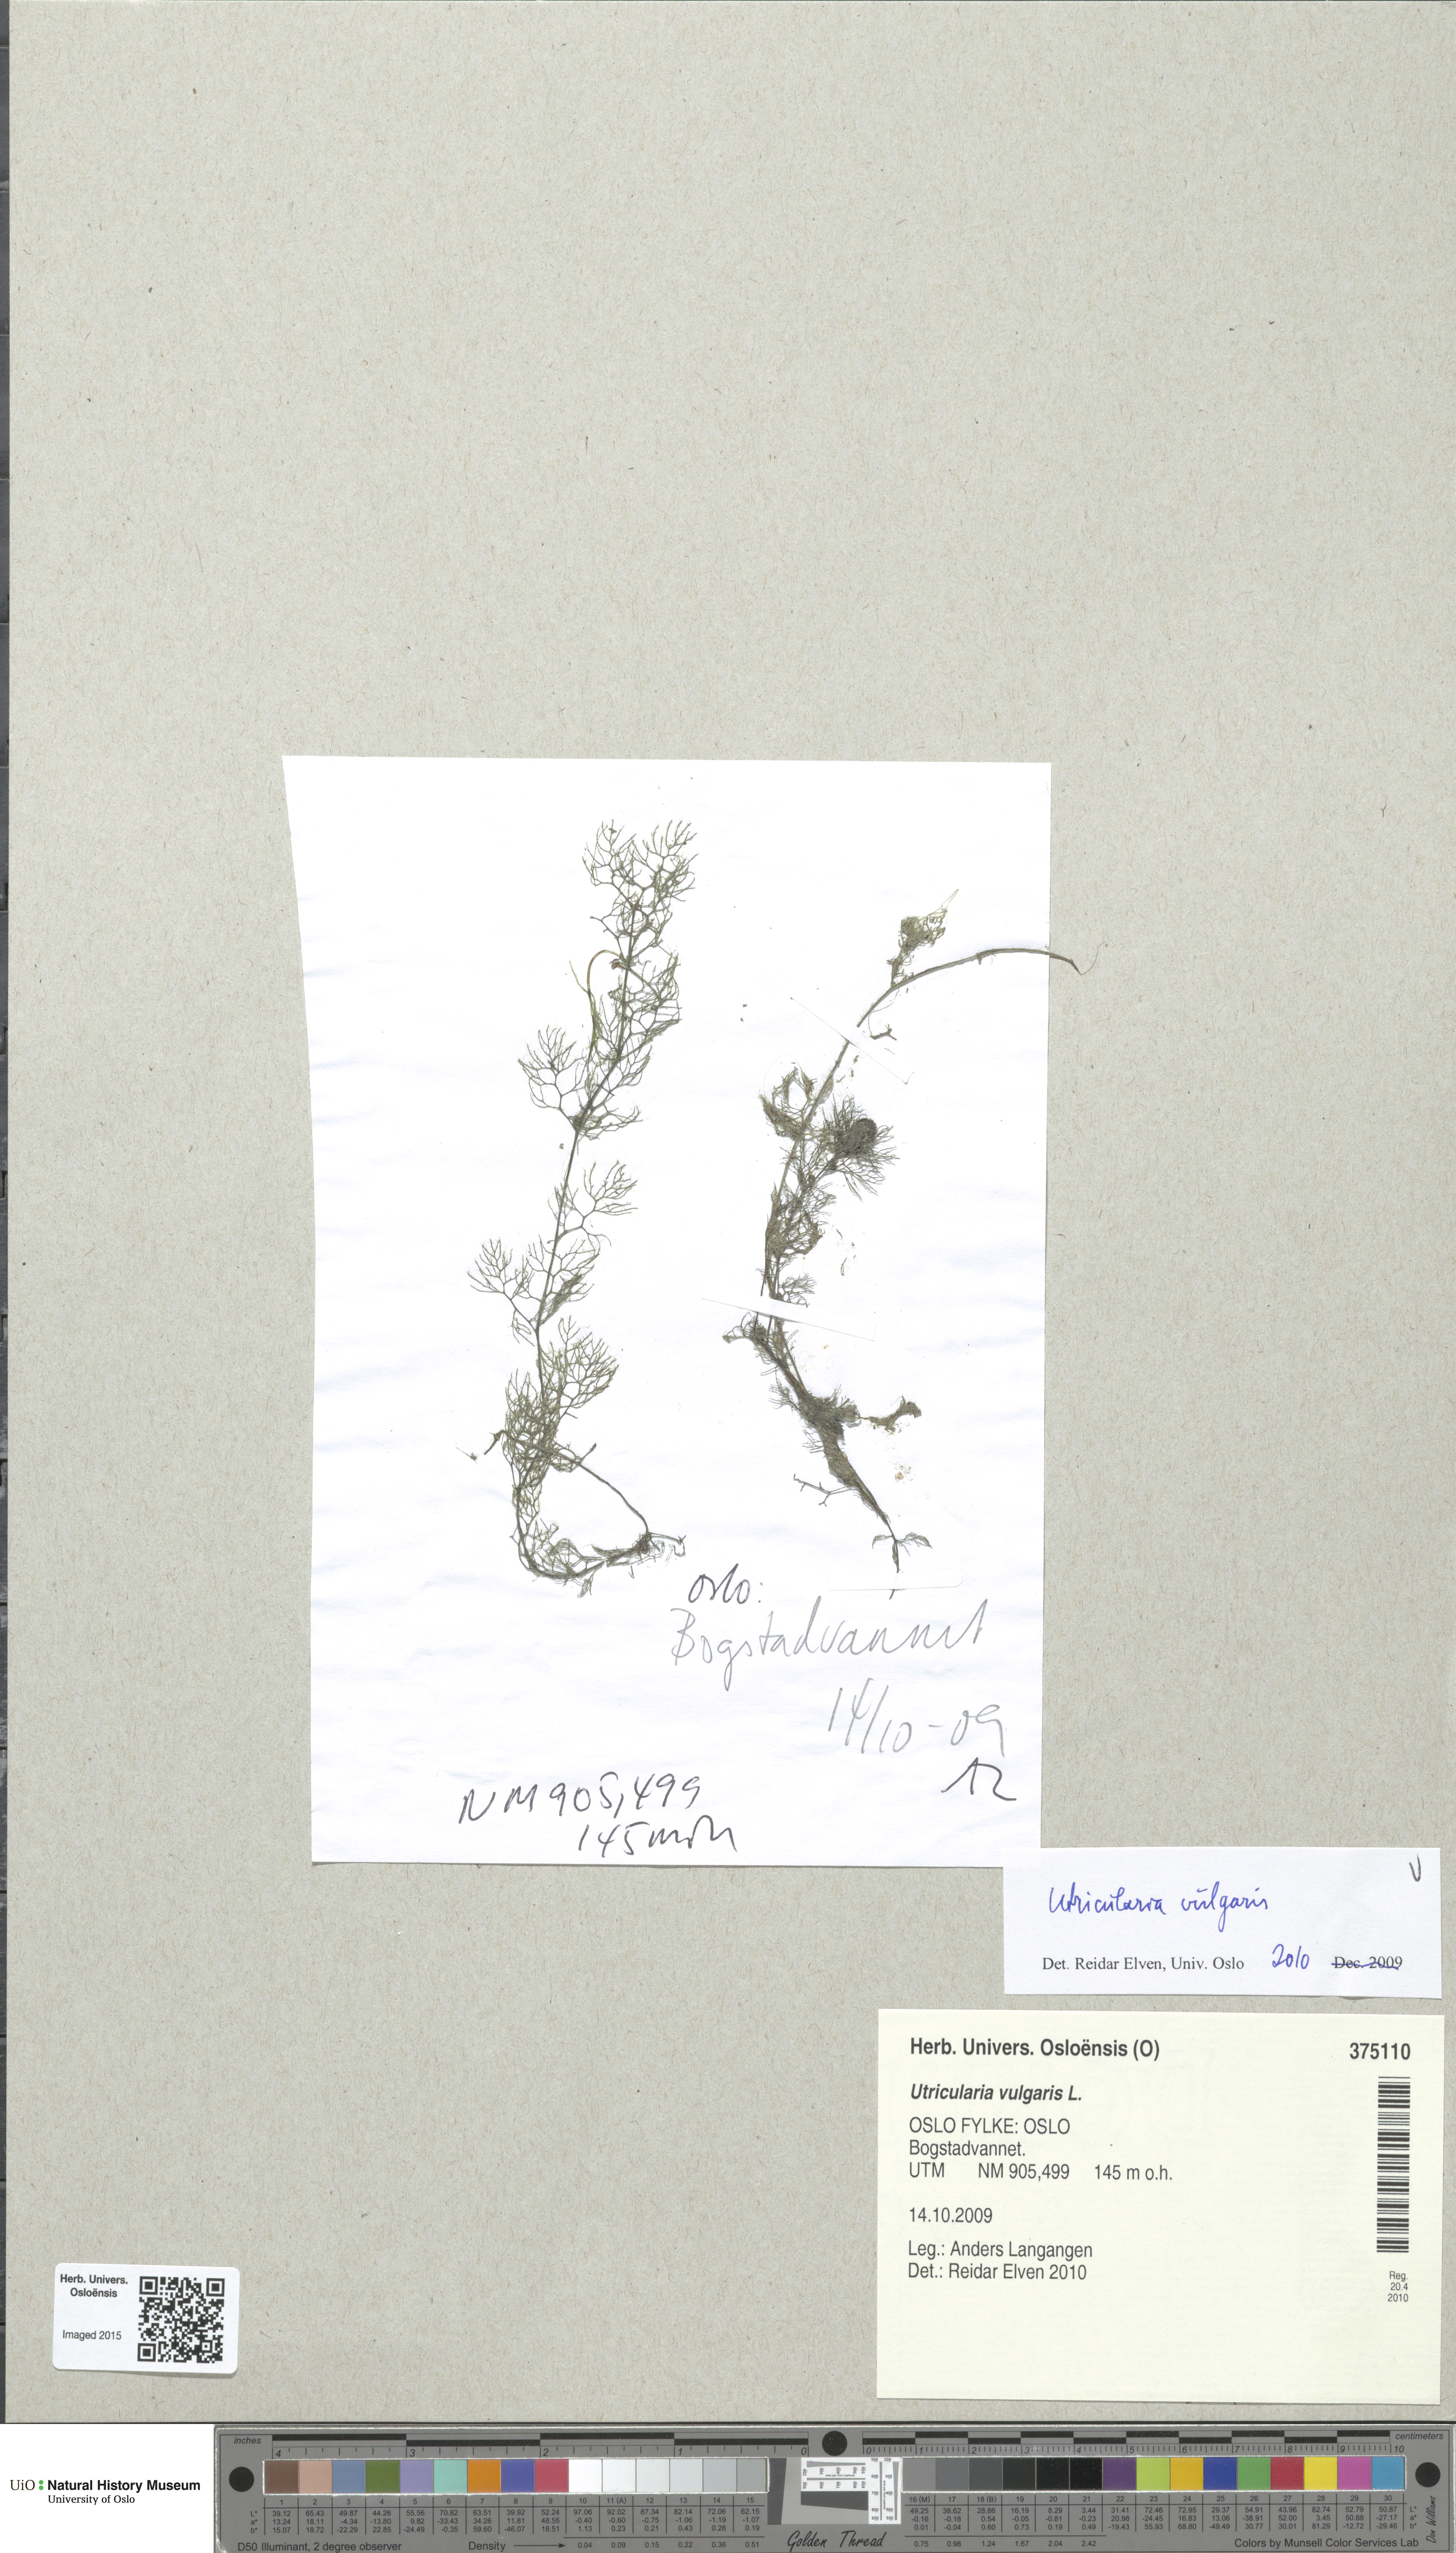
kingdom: Plantae
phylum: Tracheophyta
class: Magnoliopsida
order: Lamiales
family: Lentibulariaceae
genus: Utricularia
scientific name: Utricularia vulgaris
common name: Greater bladderwort
